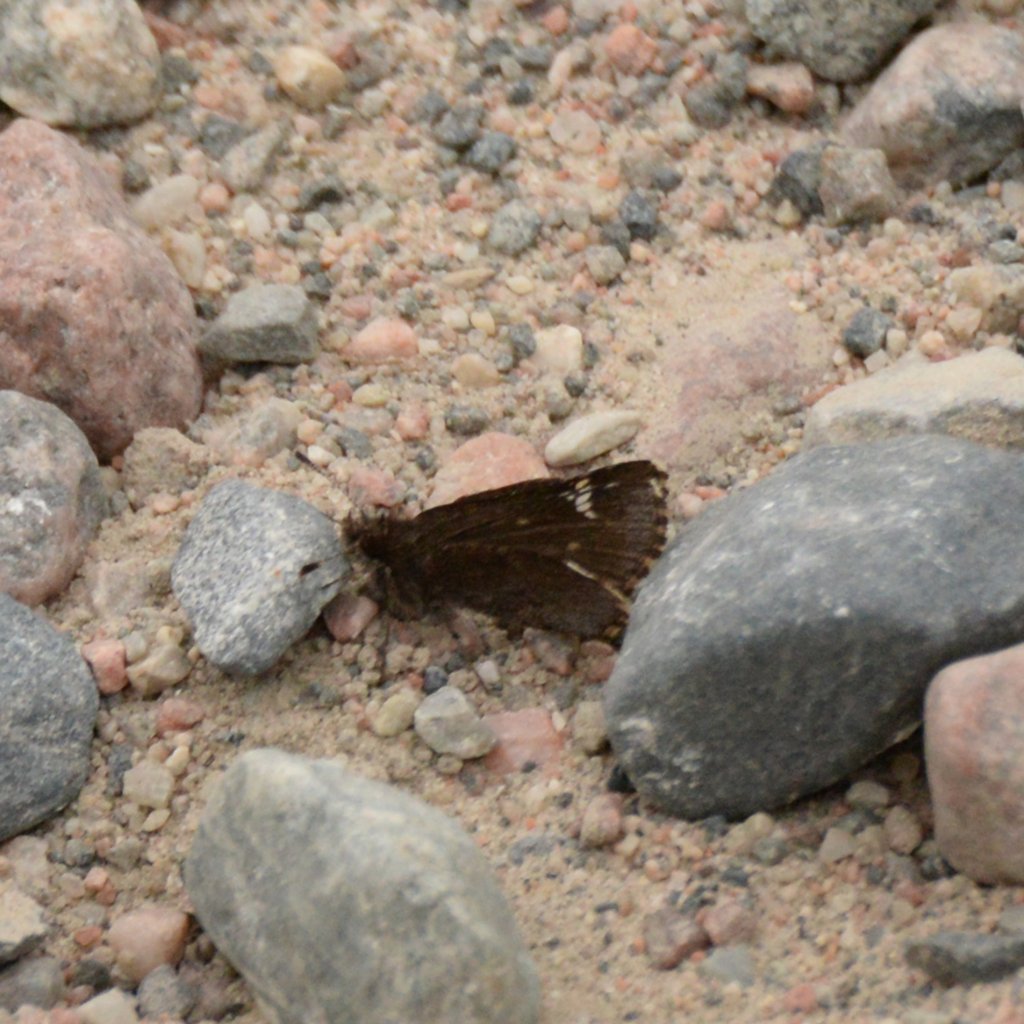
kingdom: Animalia
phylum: Arthropoda
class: Insecta
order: Lepidoptera
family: Hesperiidae
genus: Mastor
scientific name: Mastor vialis
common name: Common Roadside-Skipper
